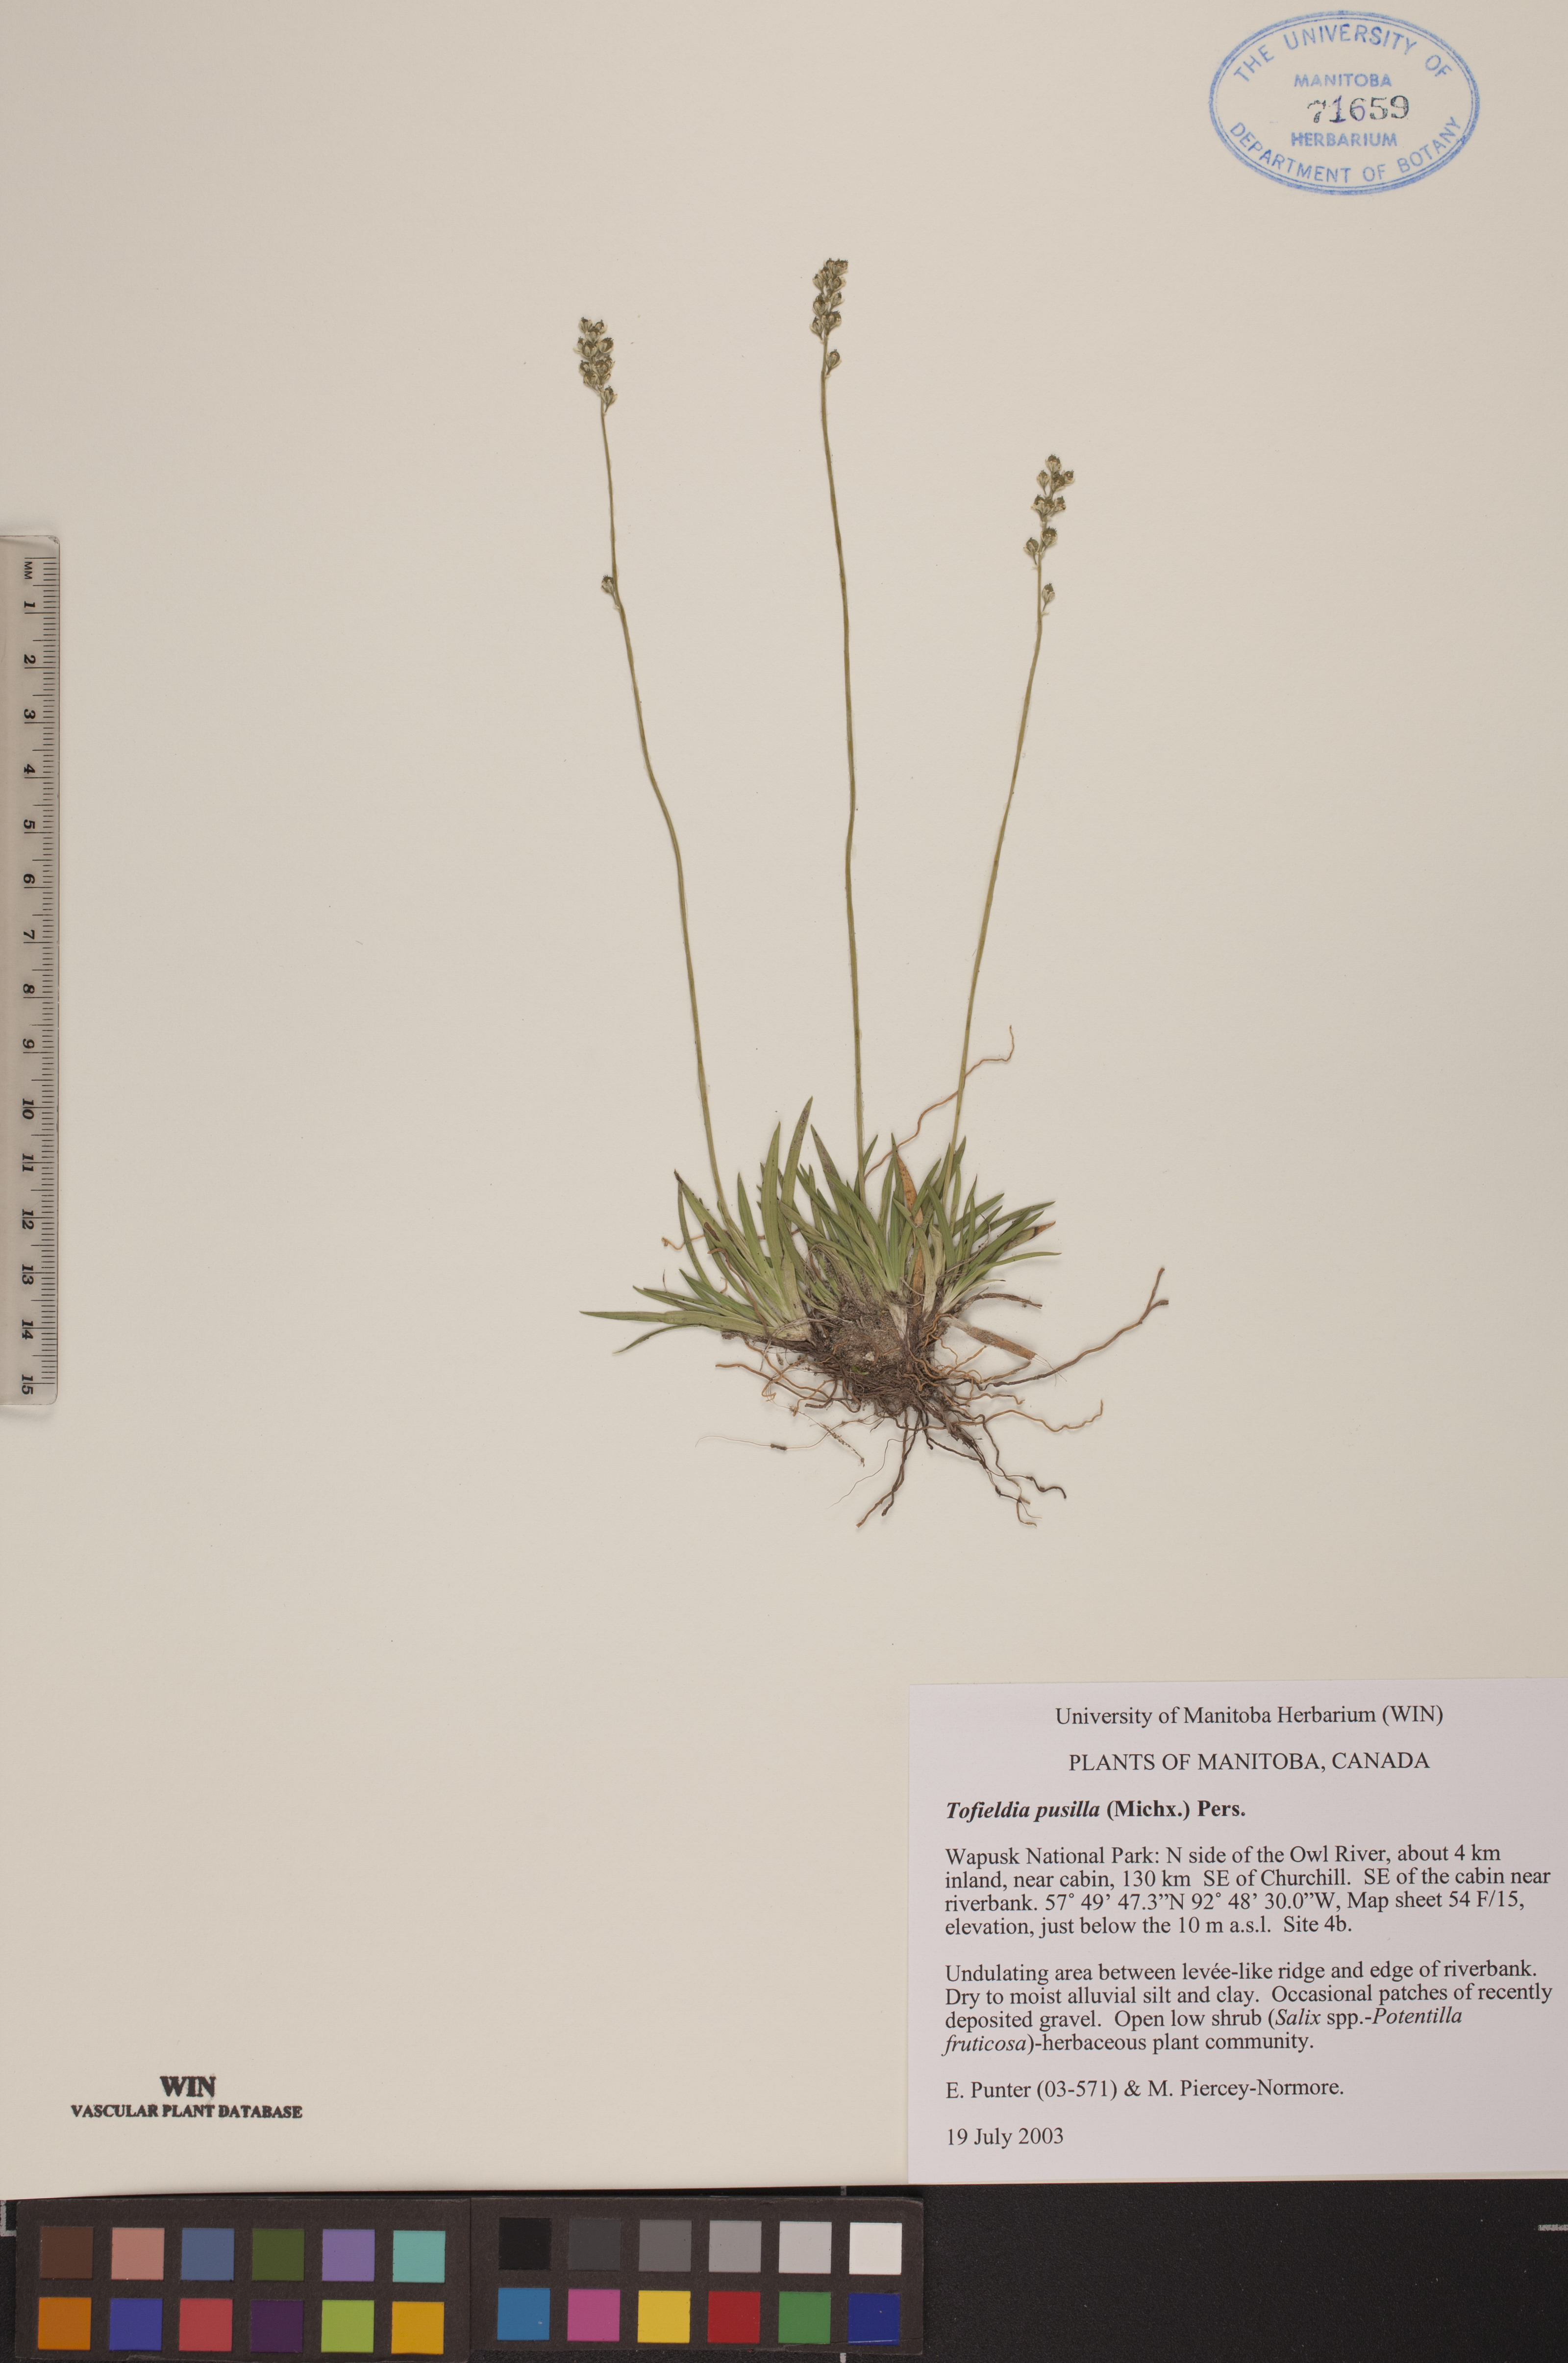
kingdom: Plantae
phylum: Tracheophyta
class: Liliopsida
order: Alismatales
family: Tofieldiaceae
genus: Tofieldia
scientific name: Tofieldia pusilla
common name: Scottish false asphodel
